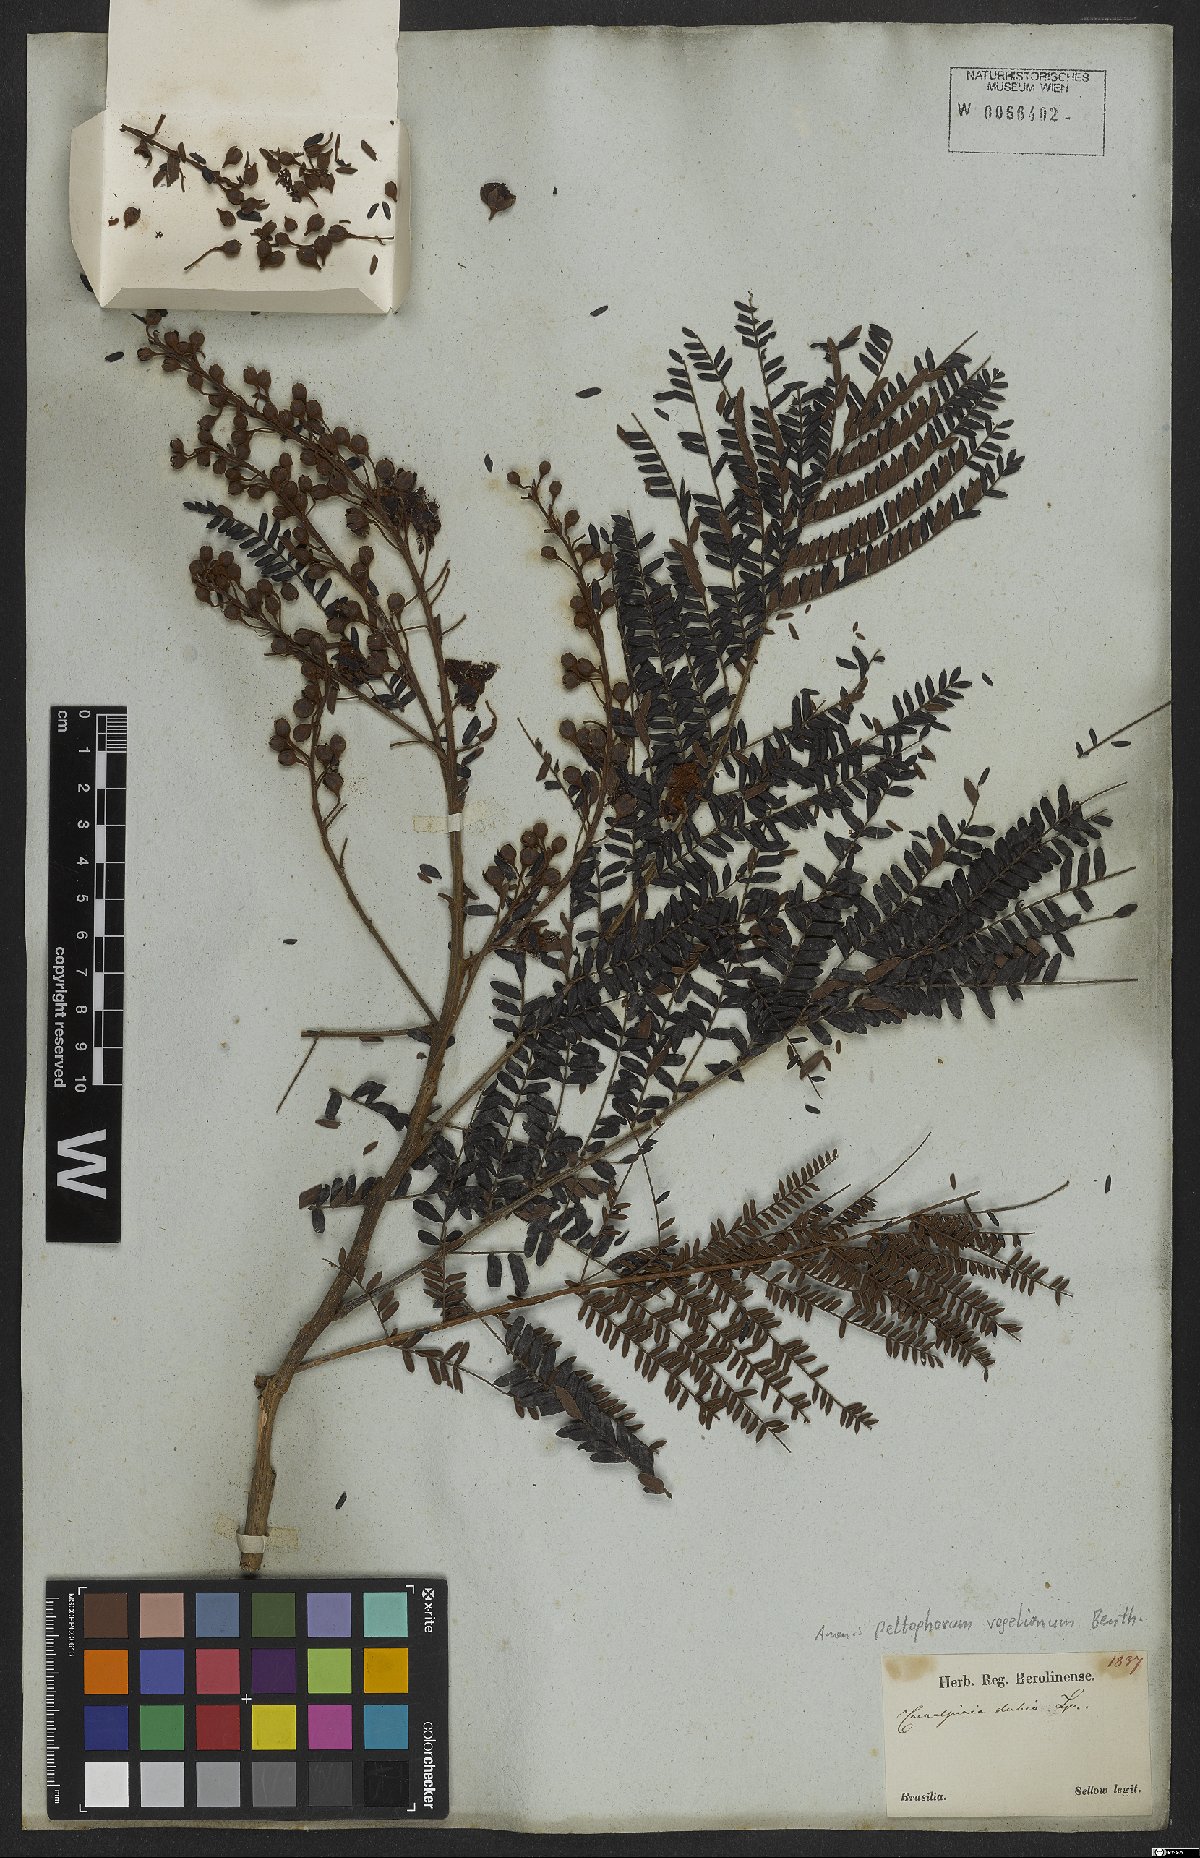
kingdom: Plantae
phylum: Tracheophyta
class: Magnoliopsida
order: Fabales
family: Fabaceae
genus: Peltophorum
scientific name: Peltophorum dubium
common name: Horsebush
